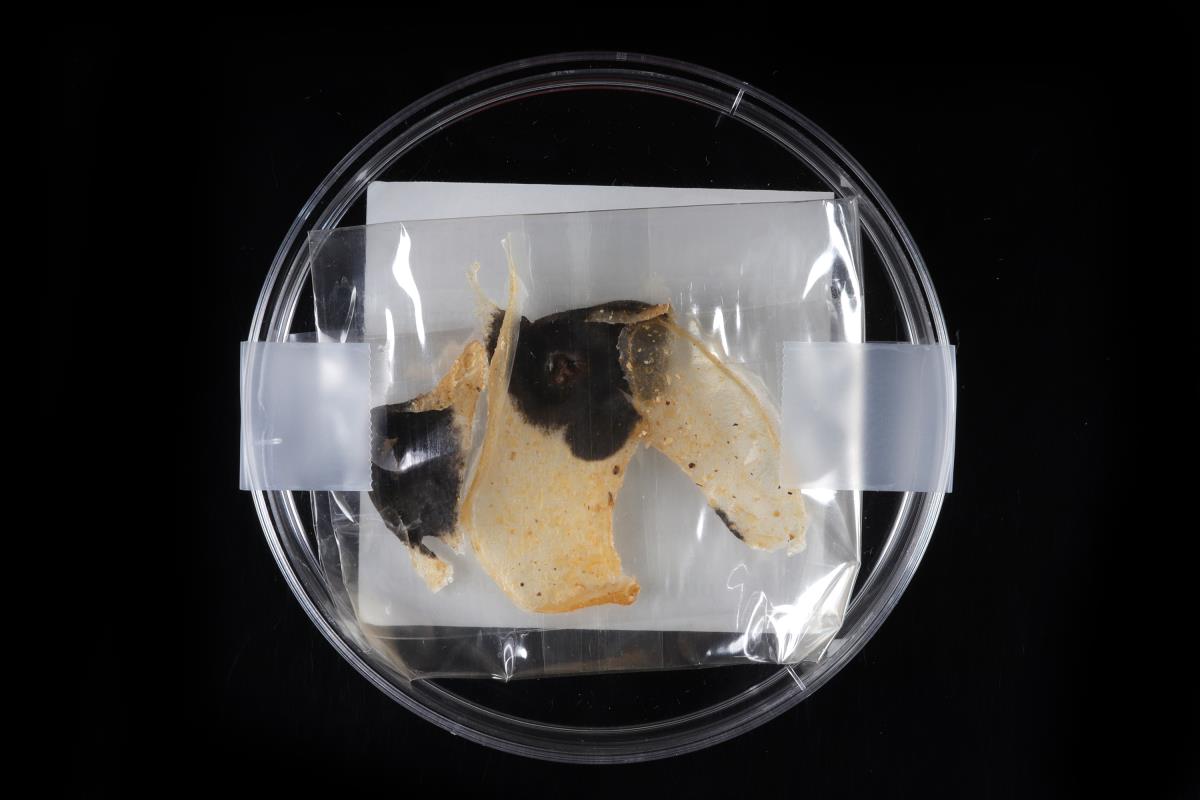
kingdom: Fungi
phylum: Ascomycota
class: Sordariomycetes
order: Chaetosphaeriales
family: Chaetosphaeriaceae
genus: Zanclospora
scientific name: Zanclospora novae-zelandiae
